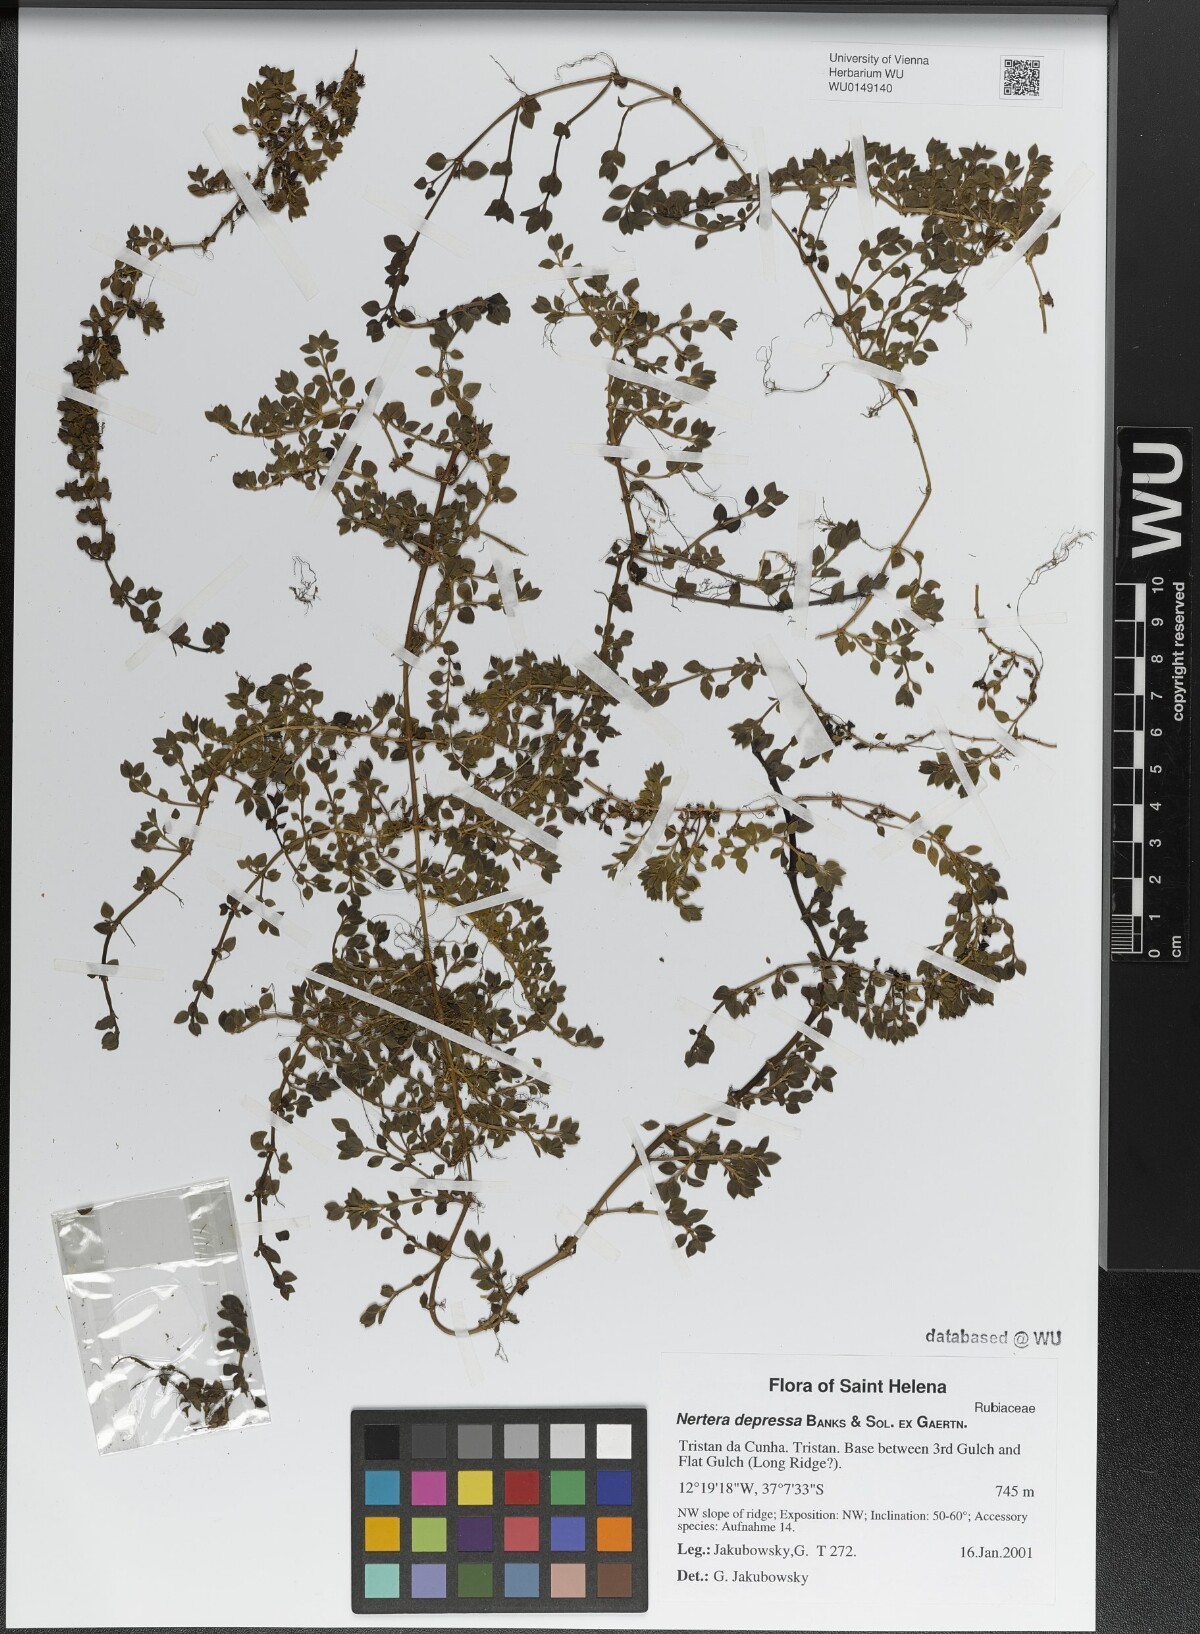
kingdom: Plantae
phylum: Tracheophyta
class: Magnoliopsida
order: Gentianales
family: Rubiaceae
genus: Nertera
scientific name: Nertera granadensis
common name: Beadplant
